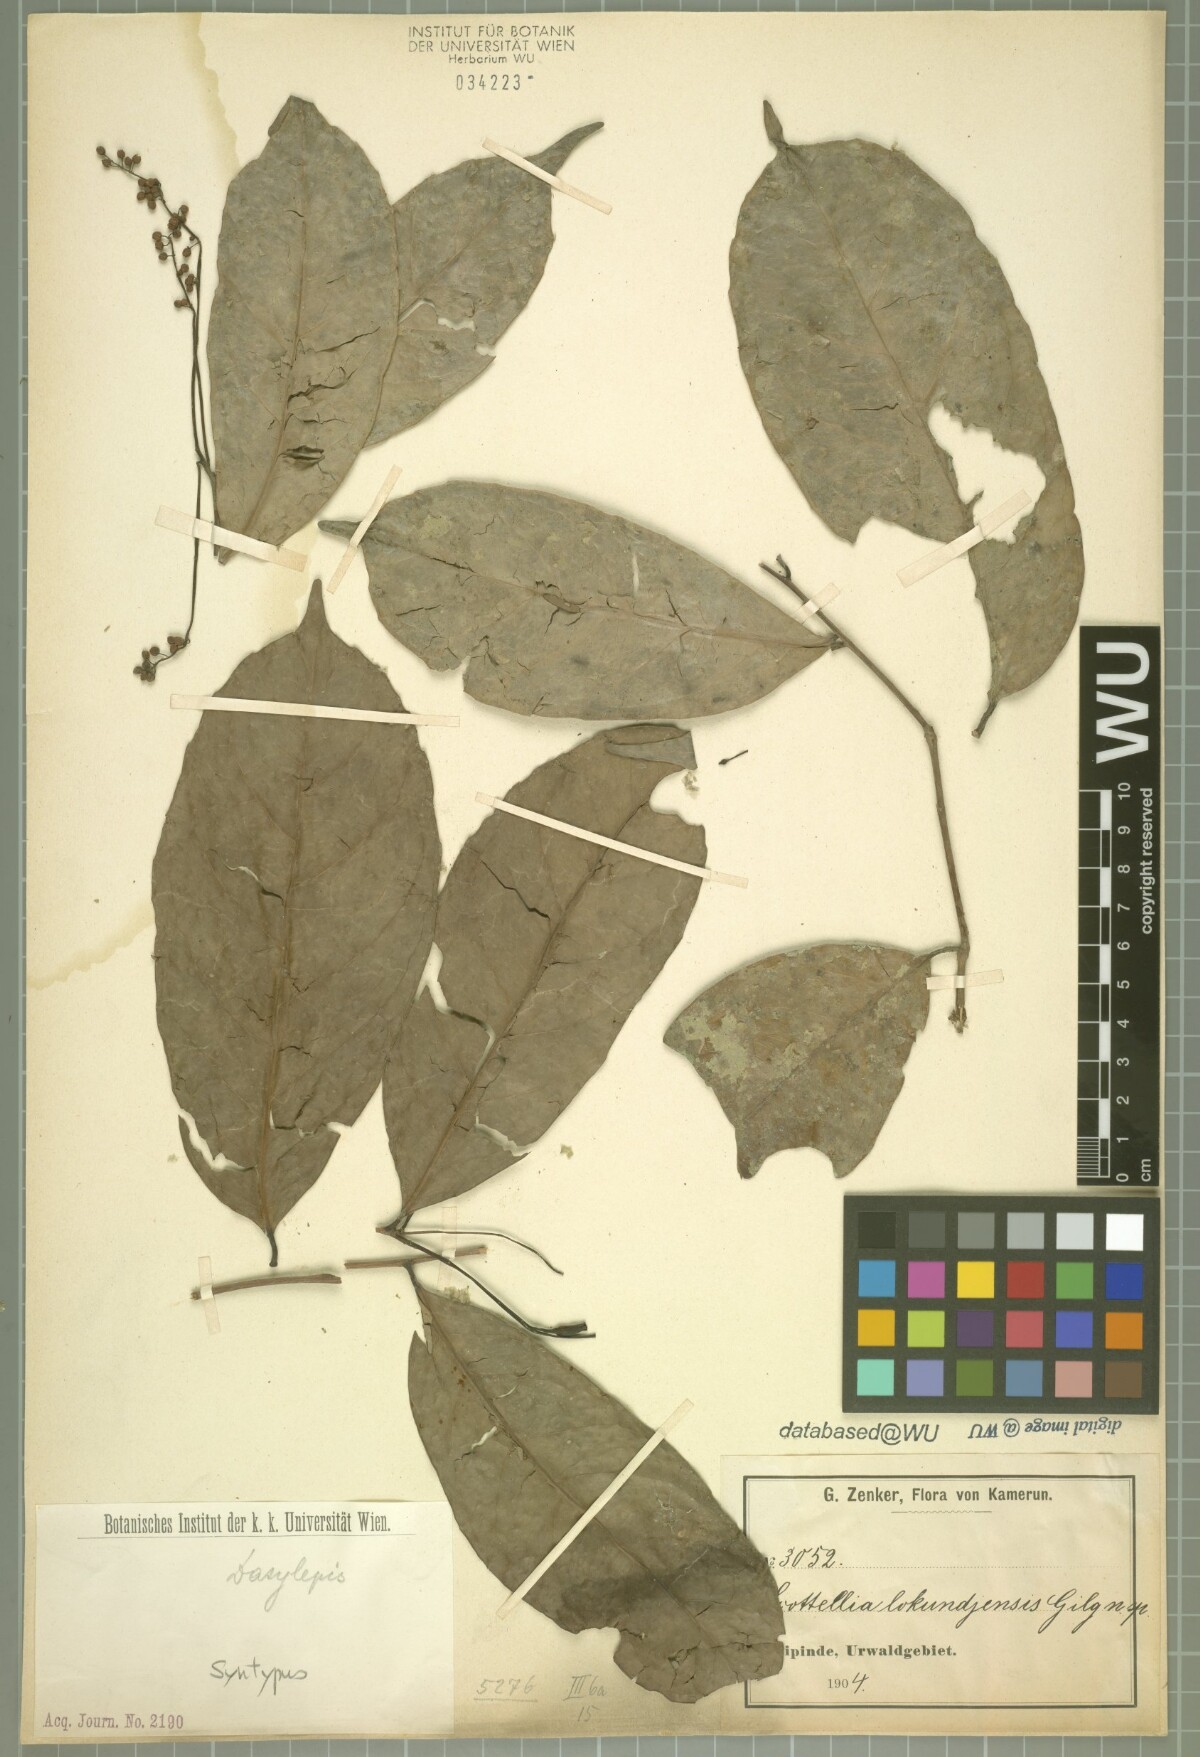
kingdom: Plantae
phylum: Tracheophyta
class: Magnoliopsida
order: Malpighiales
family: Achariaceae
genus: Scottellia
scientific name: Scottellia klaineana
